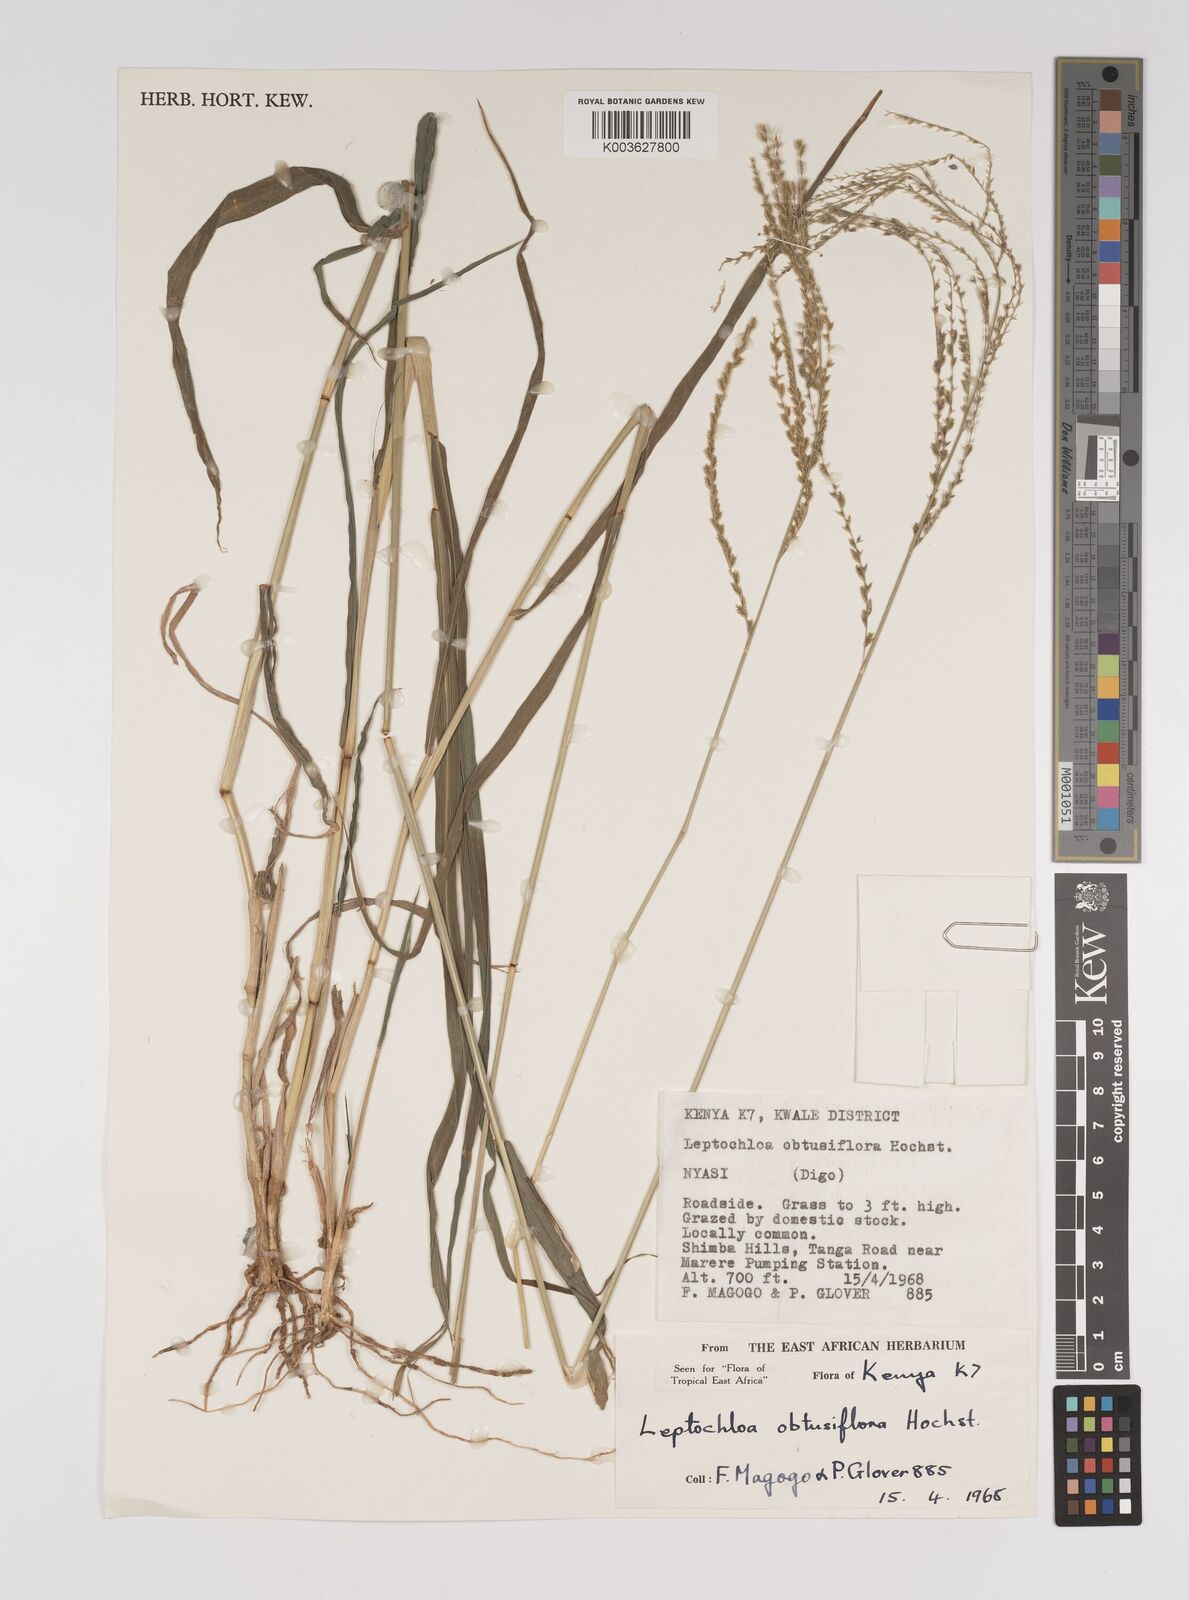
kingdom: Plantae
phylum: Tracheophyta
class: Liliopsida
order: Poales
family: Poaceae
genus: Disakisperma
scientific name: Disakisperma obtusiflorum
